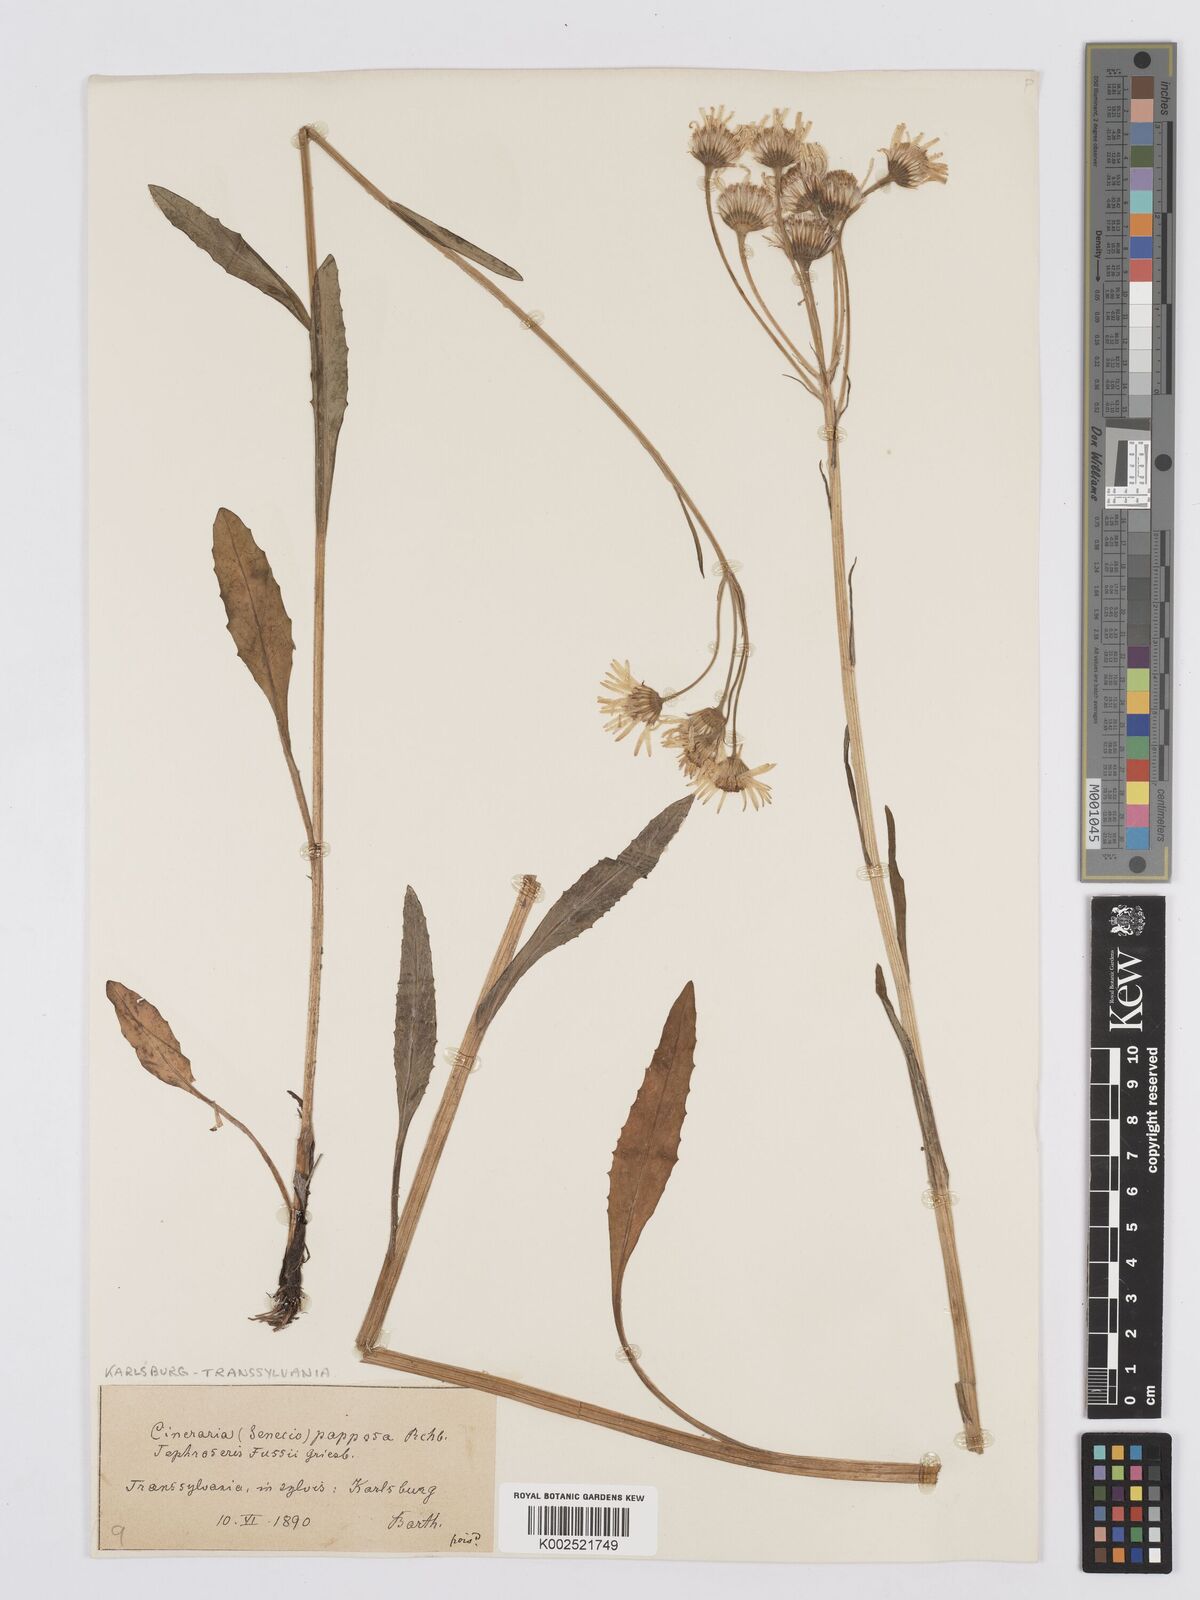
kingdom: Plantae
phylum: Tracheophyta
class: Magnoliopsida
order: Asterales
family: Asteraceae
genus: Tephroseris
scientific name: Tephroseris papposa
